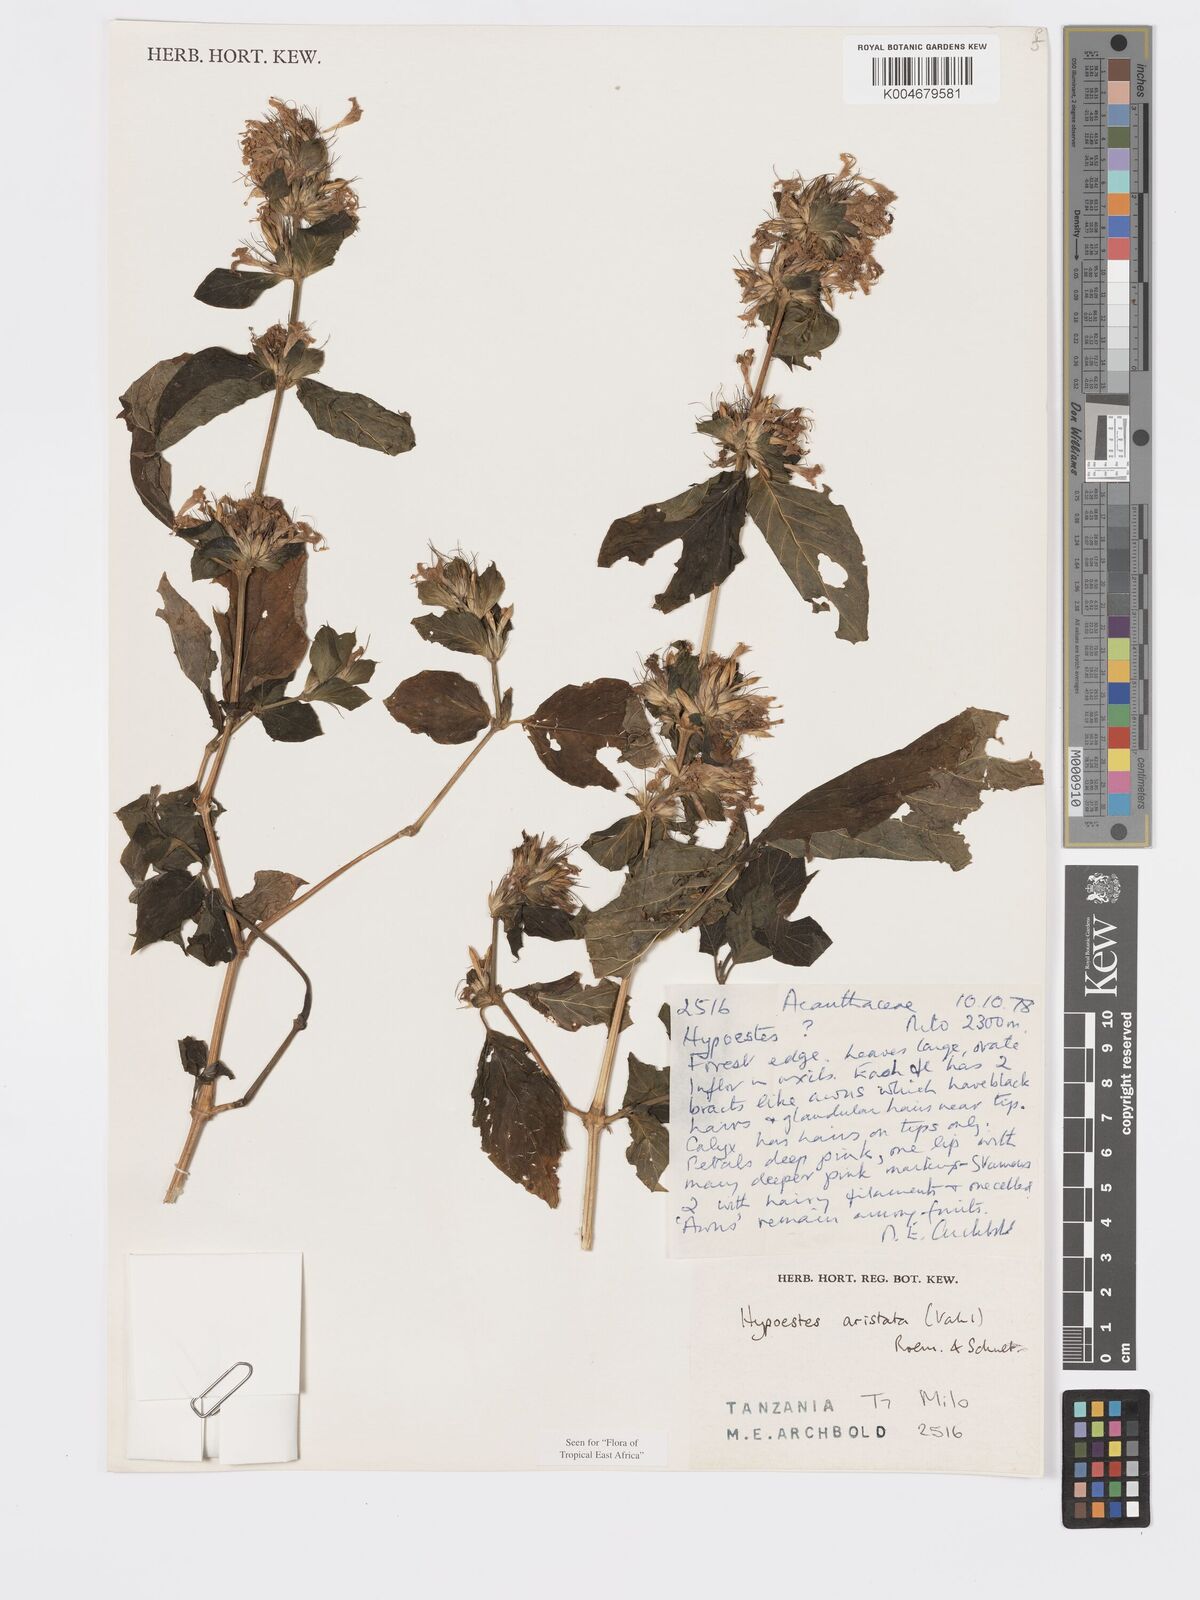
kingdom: Plantae
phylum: Tracheophyta
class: Magnoliopsida
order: Lamiales
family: Acanthaceae
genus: Hypoestes
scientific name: Hypoestes aristata
